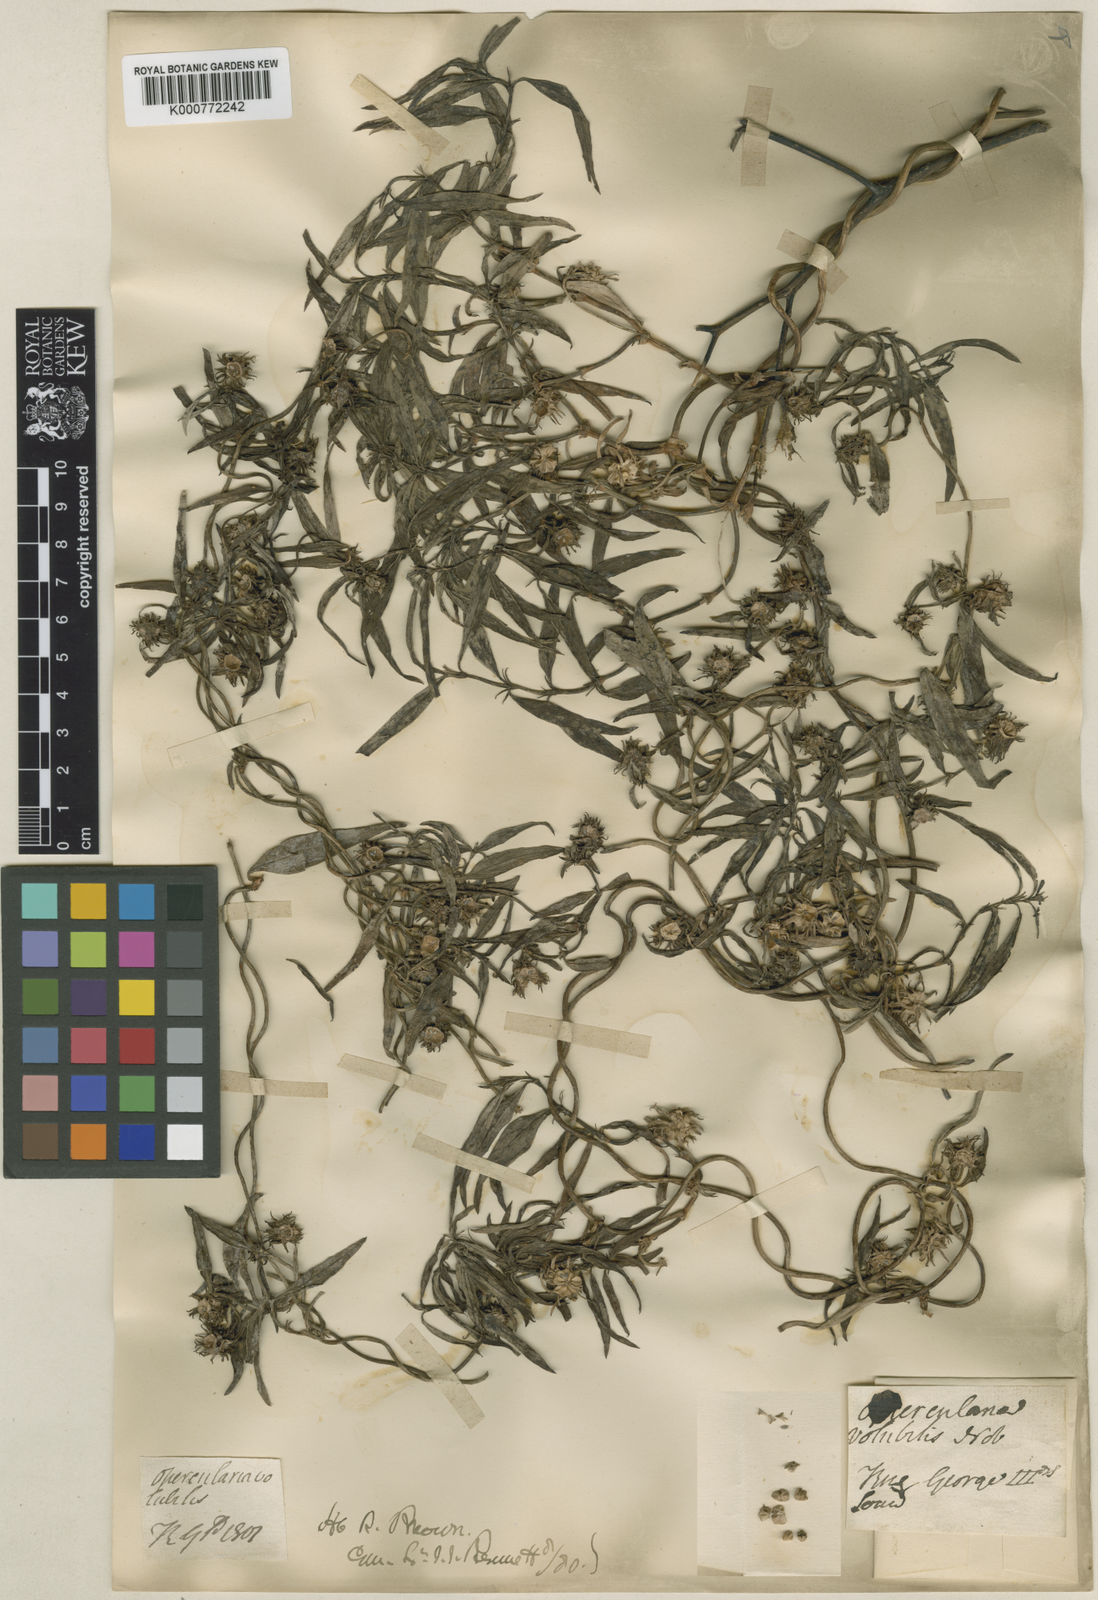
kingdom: Plantae
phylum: Tracheophyta
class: Magnoliopsida
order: Gentianales
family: Rubiaceae
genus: Opercularia
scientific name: Opercularia volubilis
